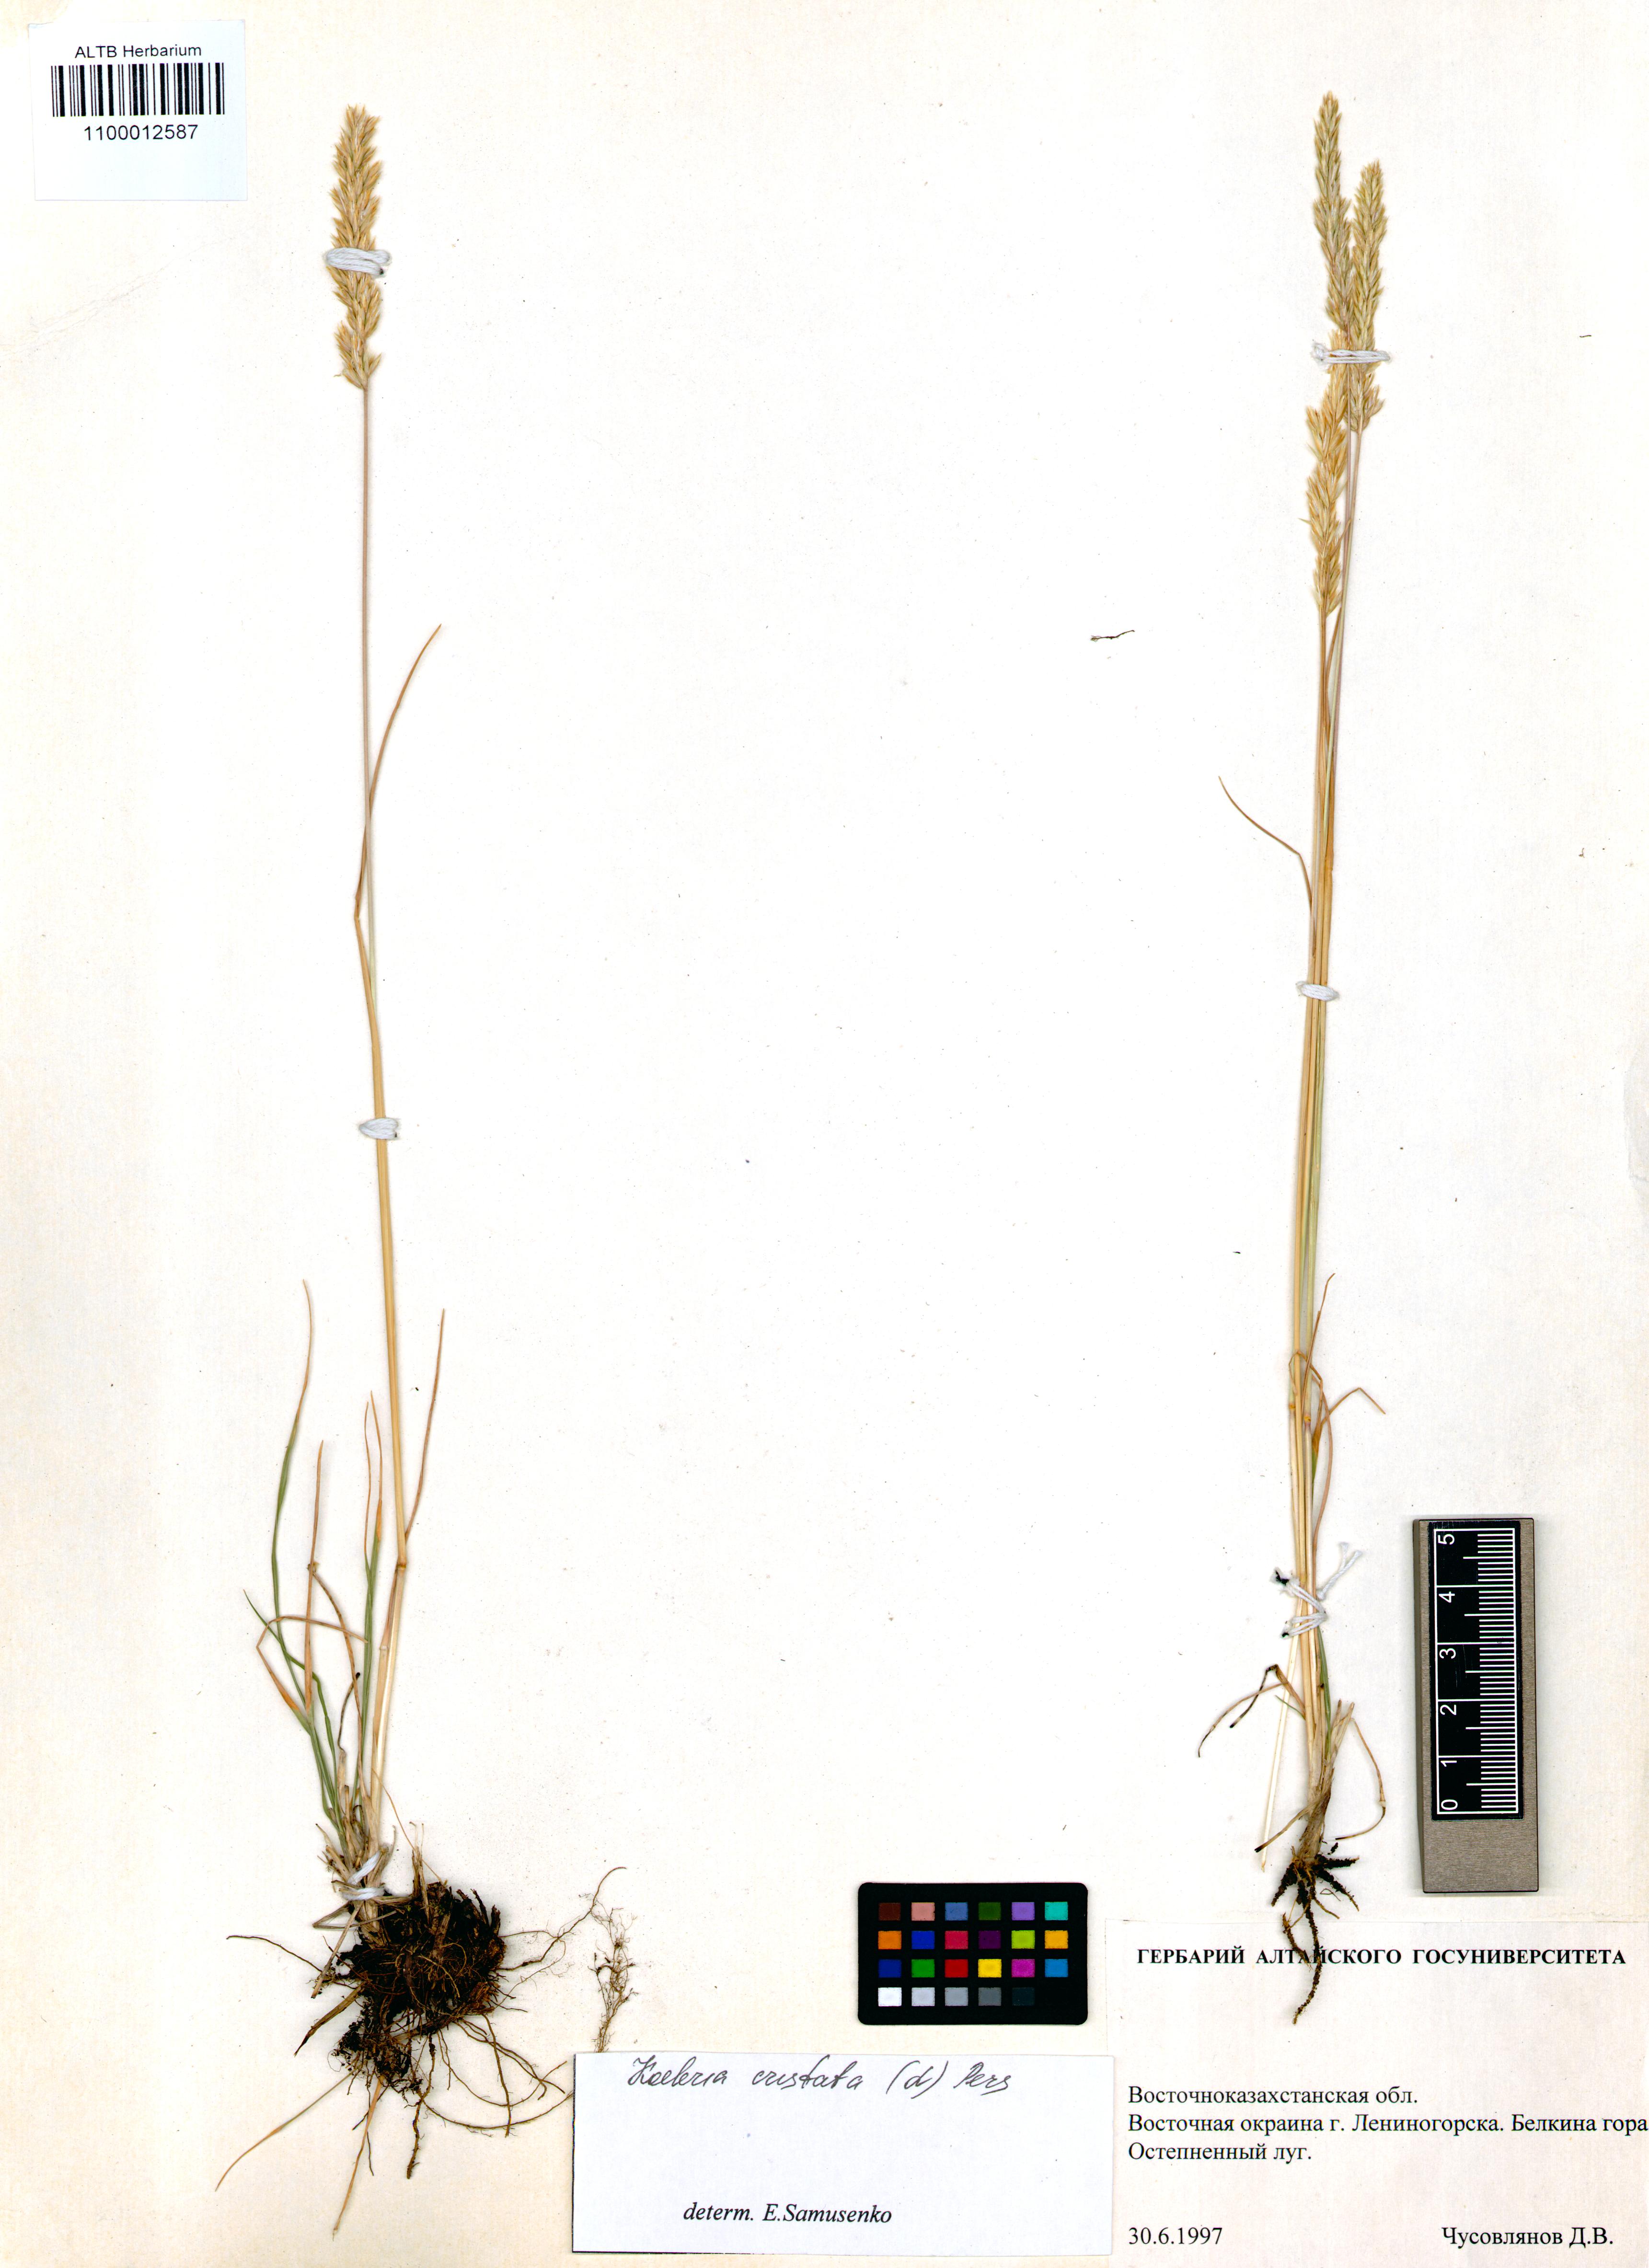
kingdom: Plantae
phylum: Tracheophyta
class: Liliopsida
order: Poales
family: Poaceae
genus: Koeleria
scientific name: Koeleria pyramidata
